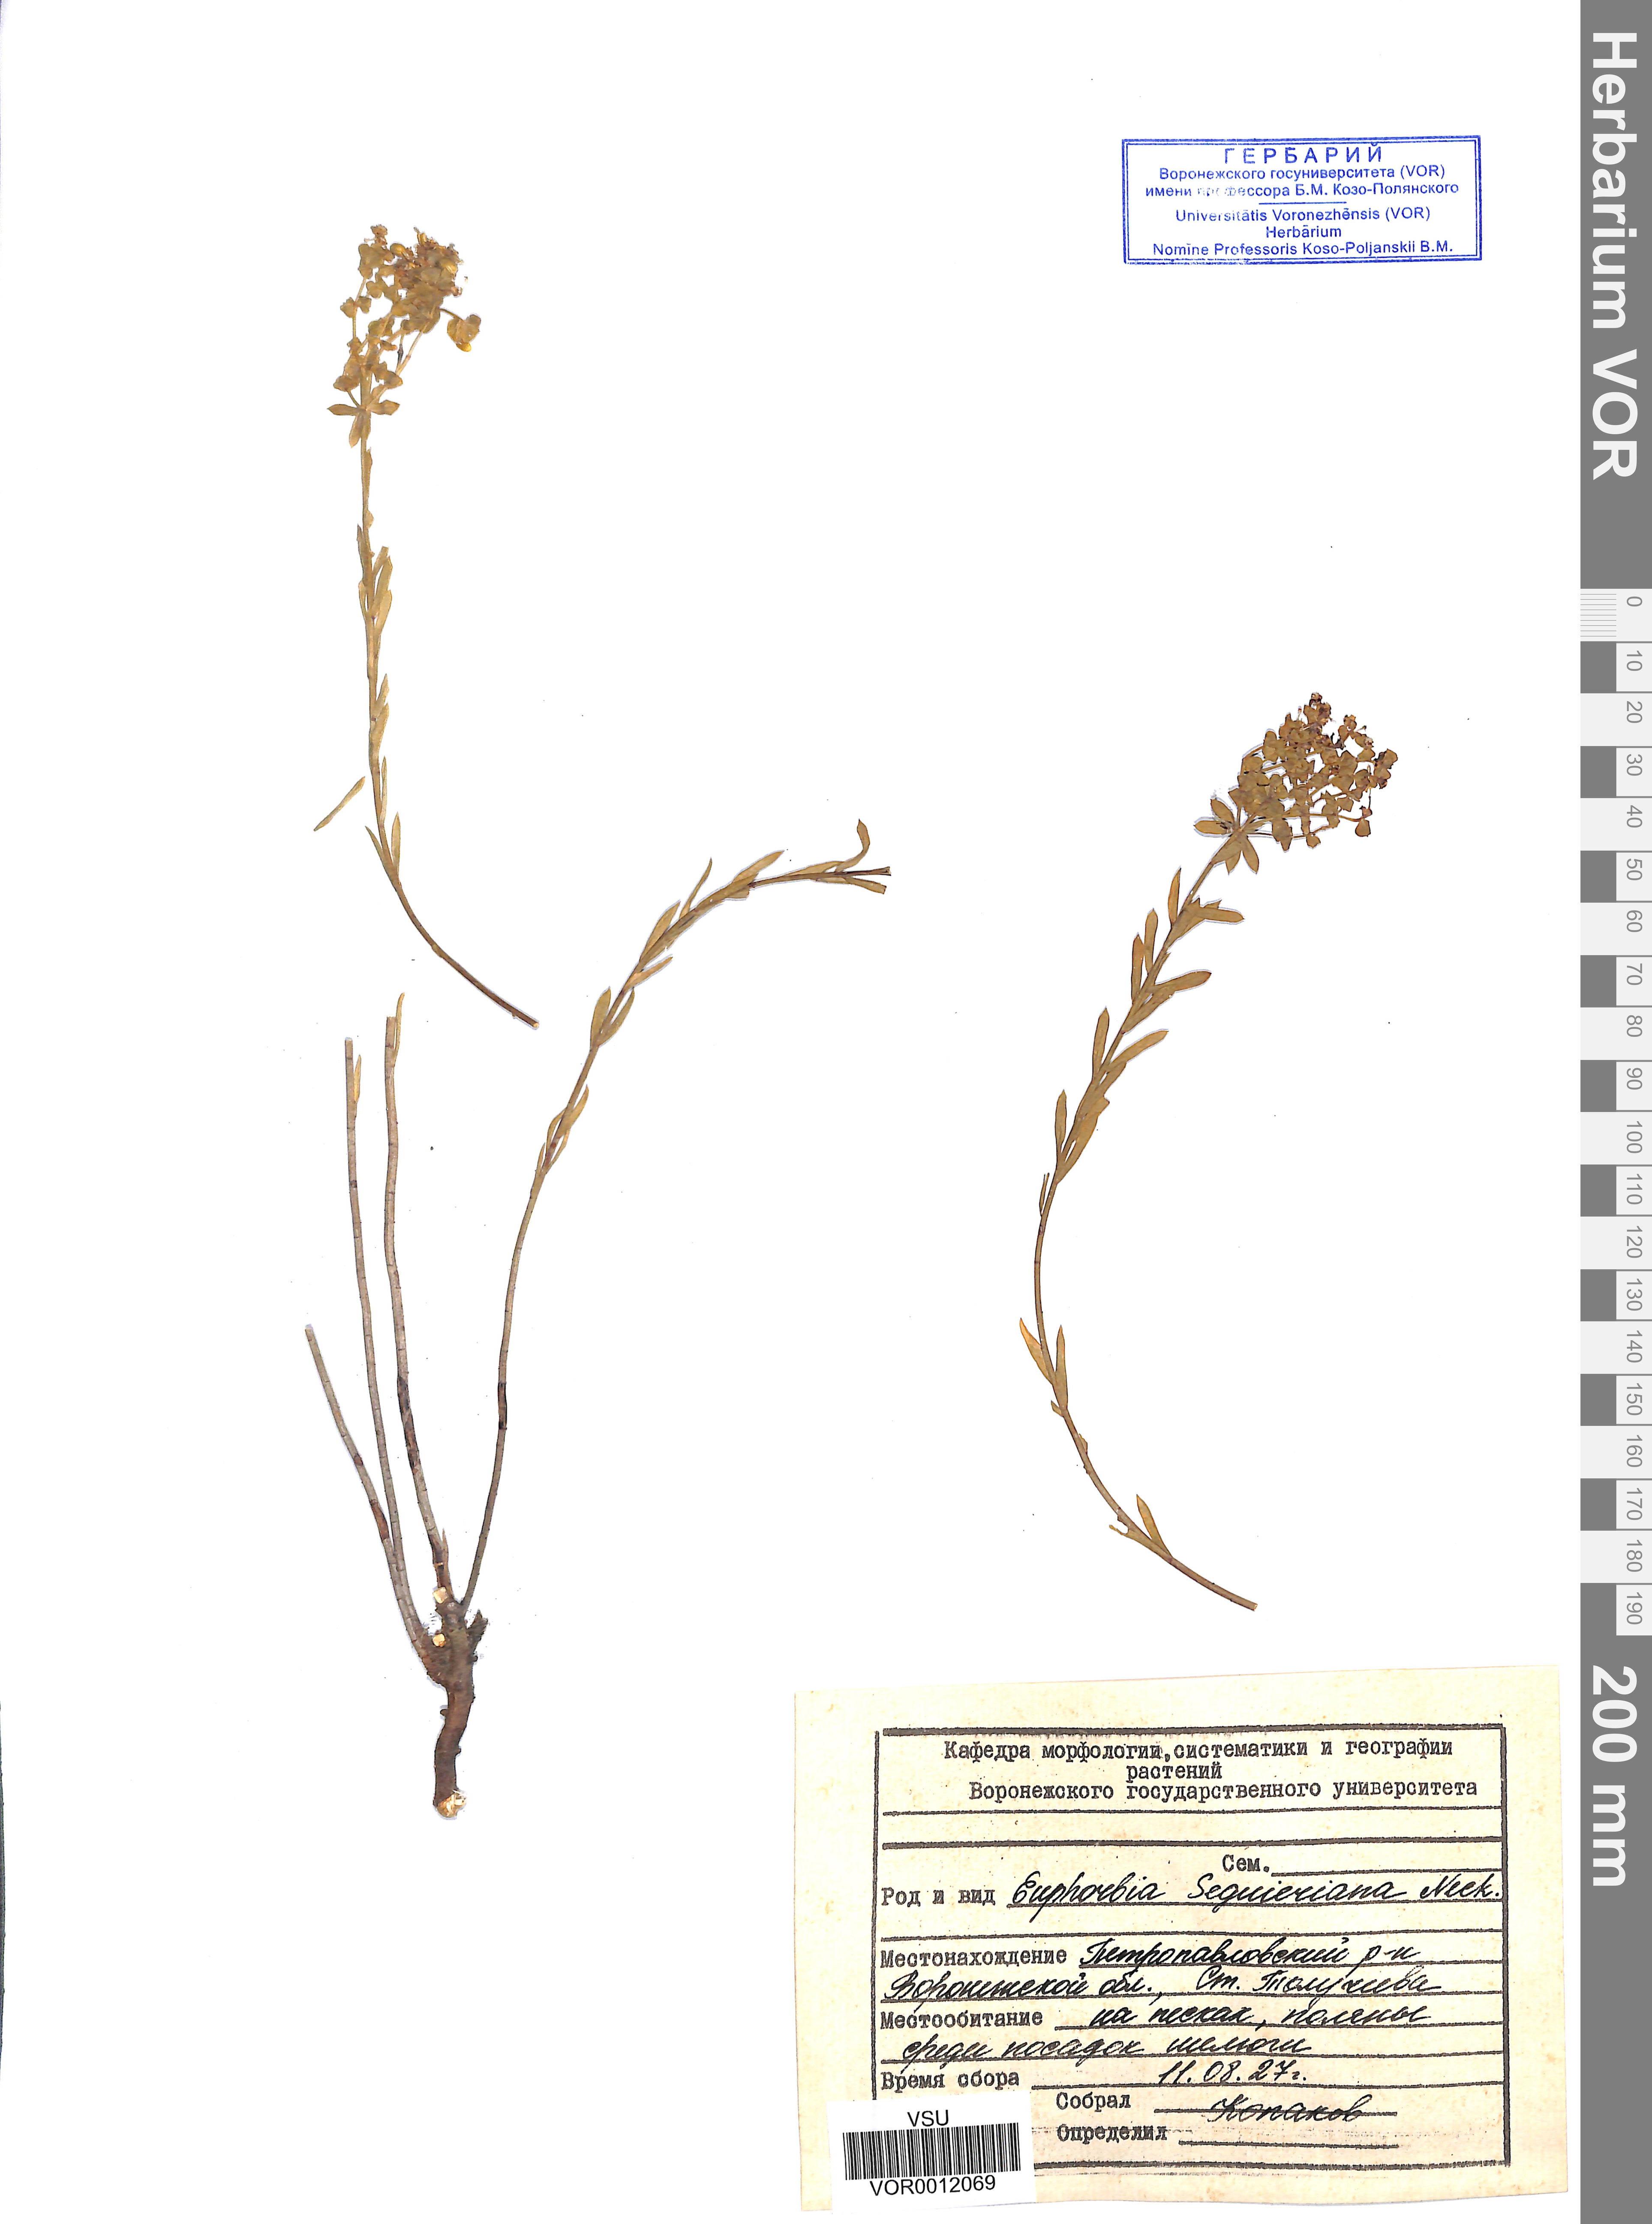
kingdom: Plantae
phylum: Tracheophyta
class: Magnoliopsida
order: Malpighiales
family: Euphorbiaceae
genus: Euphorbia
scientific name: Euphorbia seguieriana
